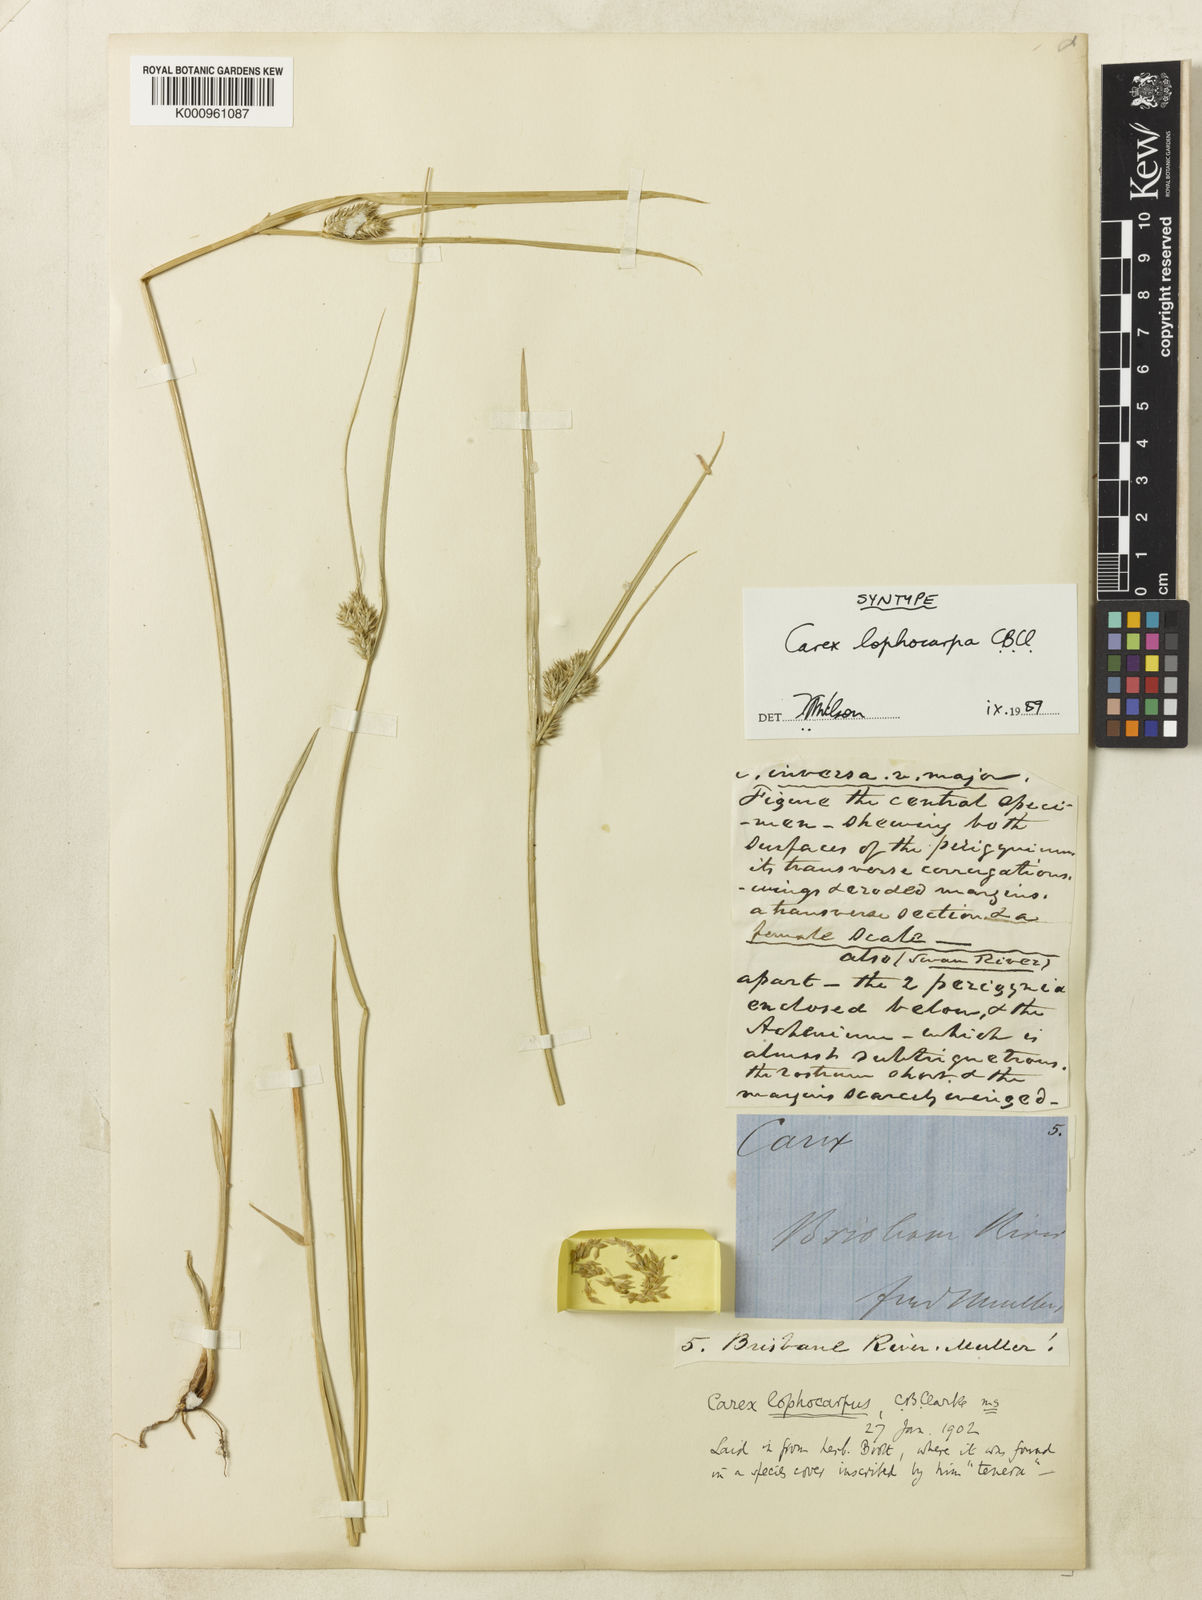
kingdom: Plantae
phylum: Tracheophyta
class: Liliopsida
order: Poales
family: Cyperaceae
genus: Carex
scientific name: Carex lophocarpa
